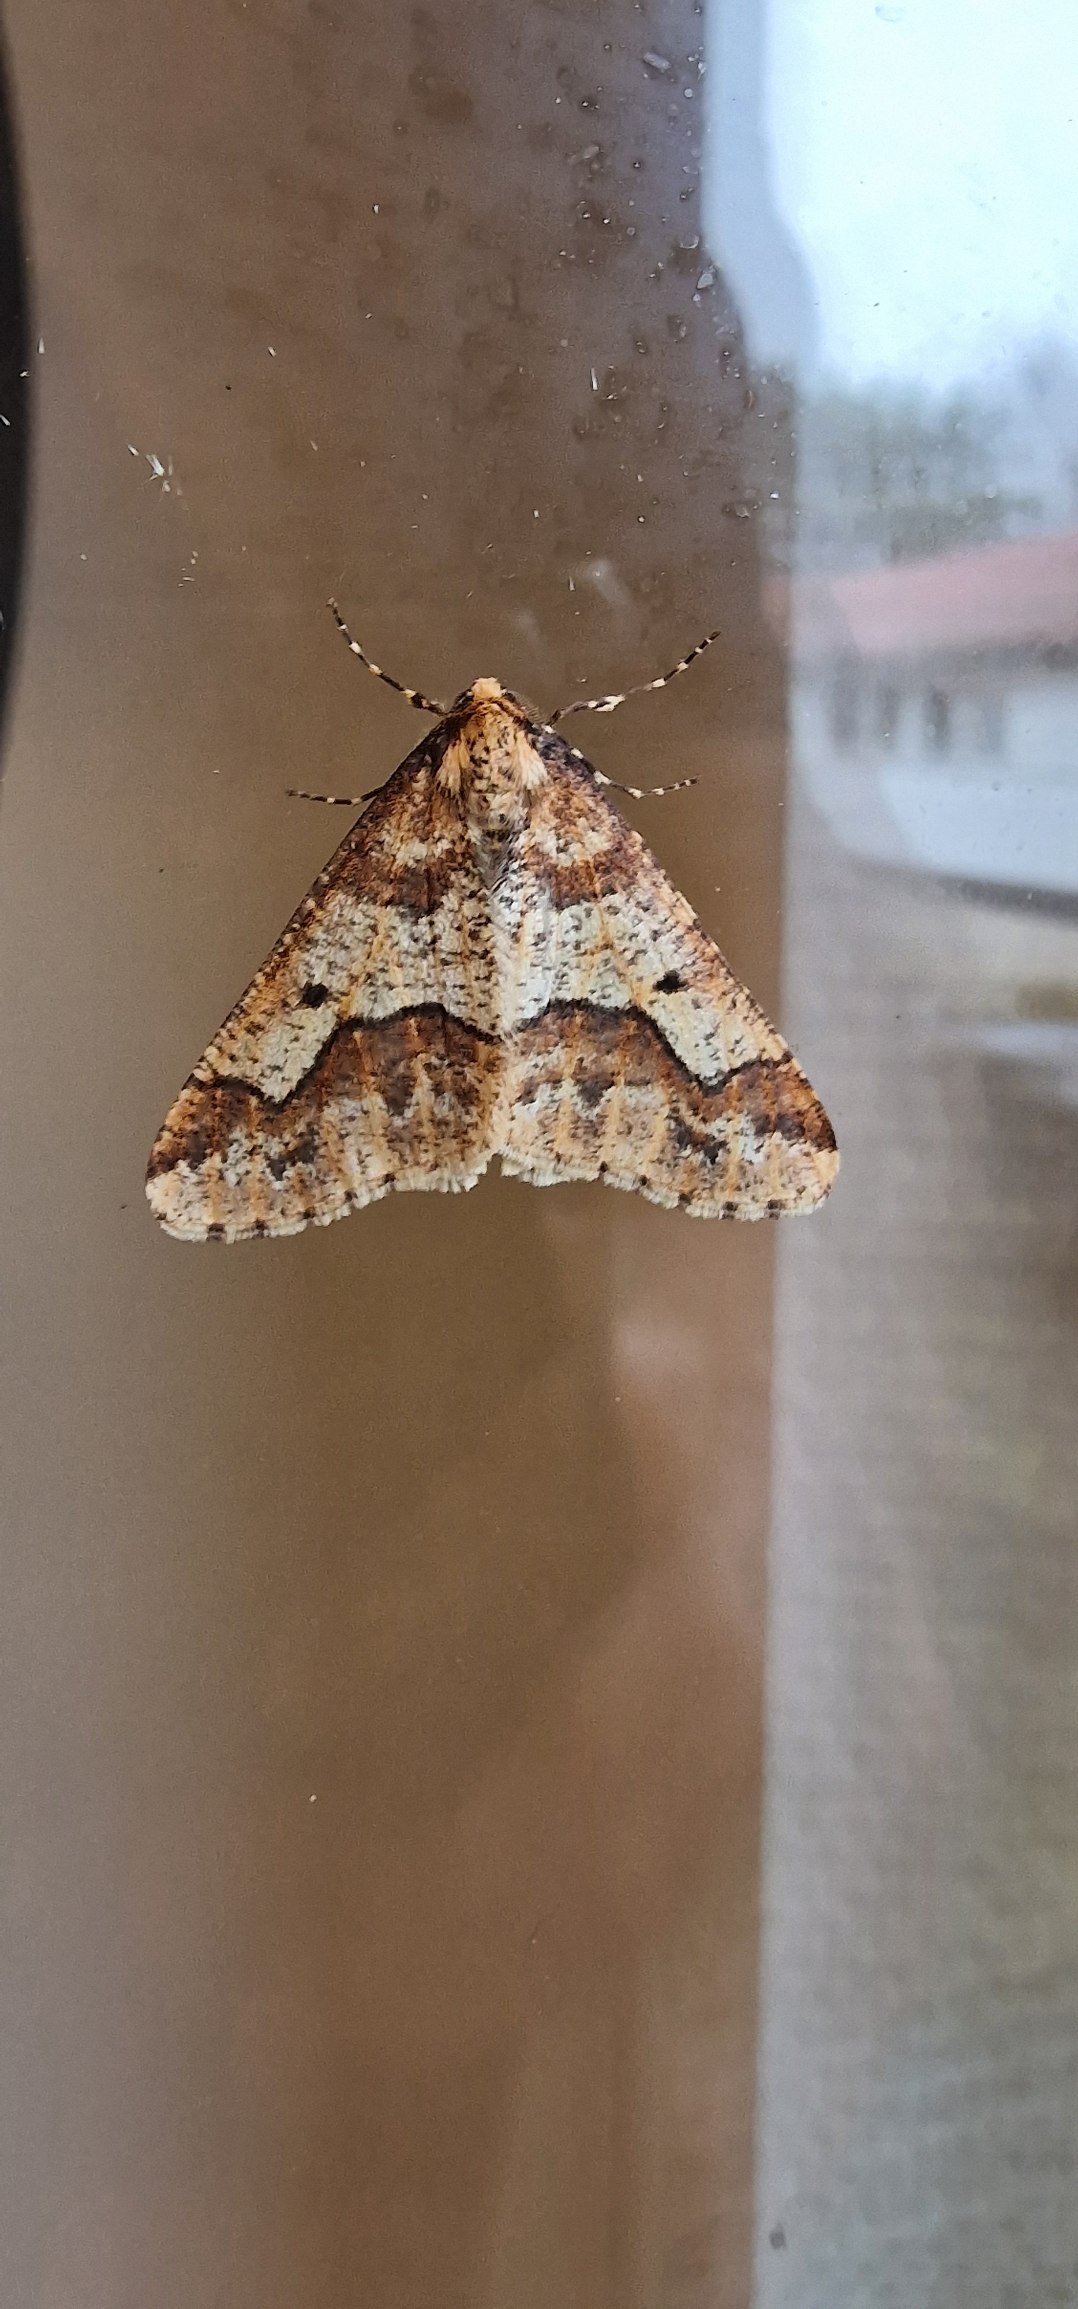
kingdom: Animalia
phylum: Arthropoda
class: Insecta
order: Lepidoptera
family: Geometridae
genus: Erannis
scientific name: Erannis defoliaria
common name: Stor frostmåler
